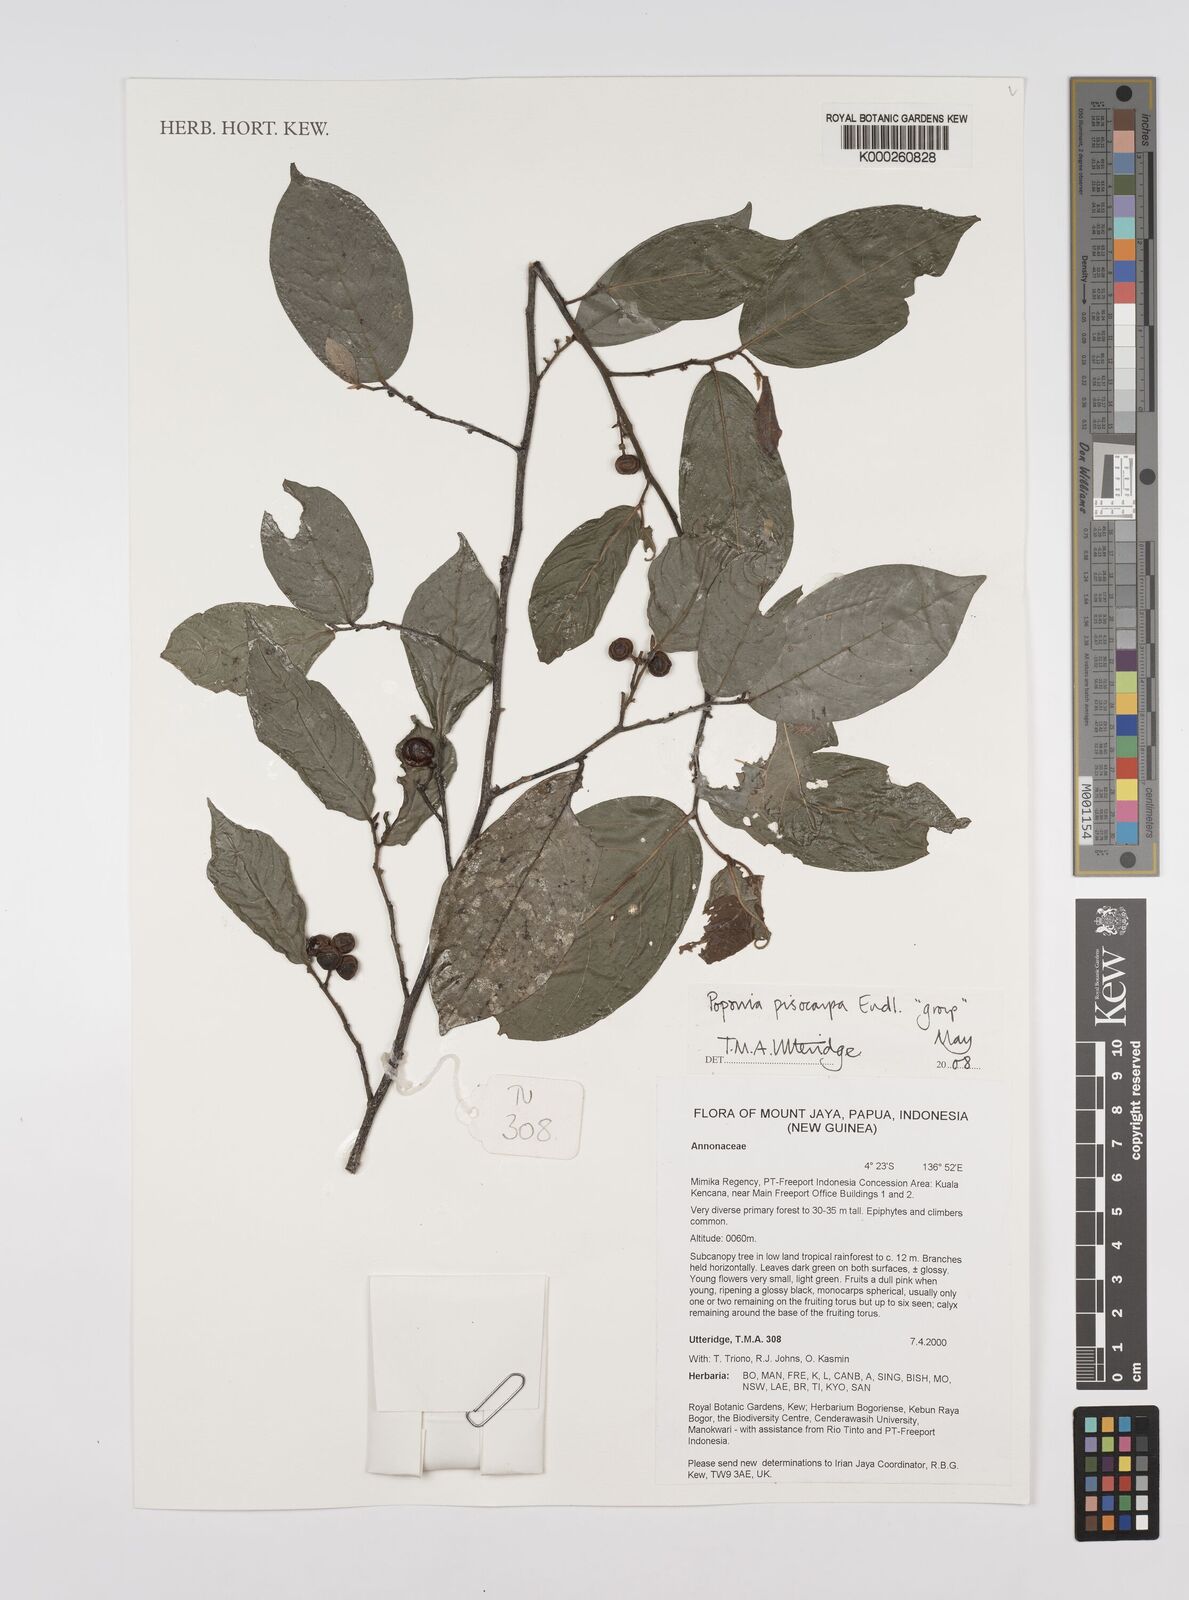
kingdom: Plantae
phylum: Tracheophyta
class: Magnoliopsida
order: Magnoliales
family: Annonaceae
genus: Popowia
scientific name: Popowia
